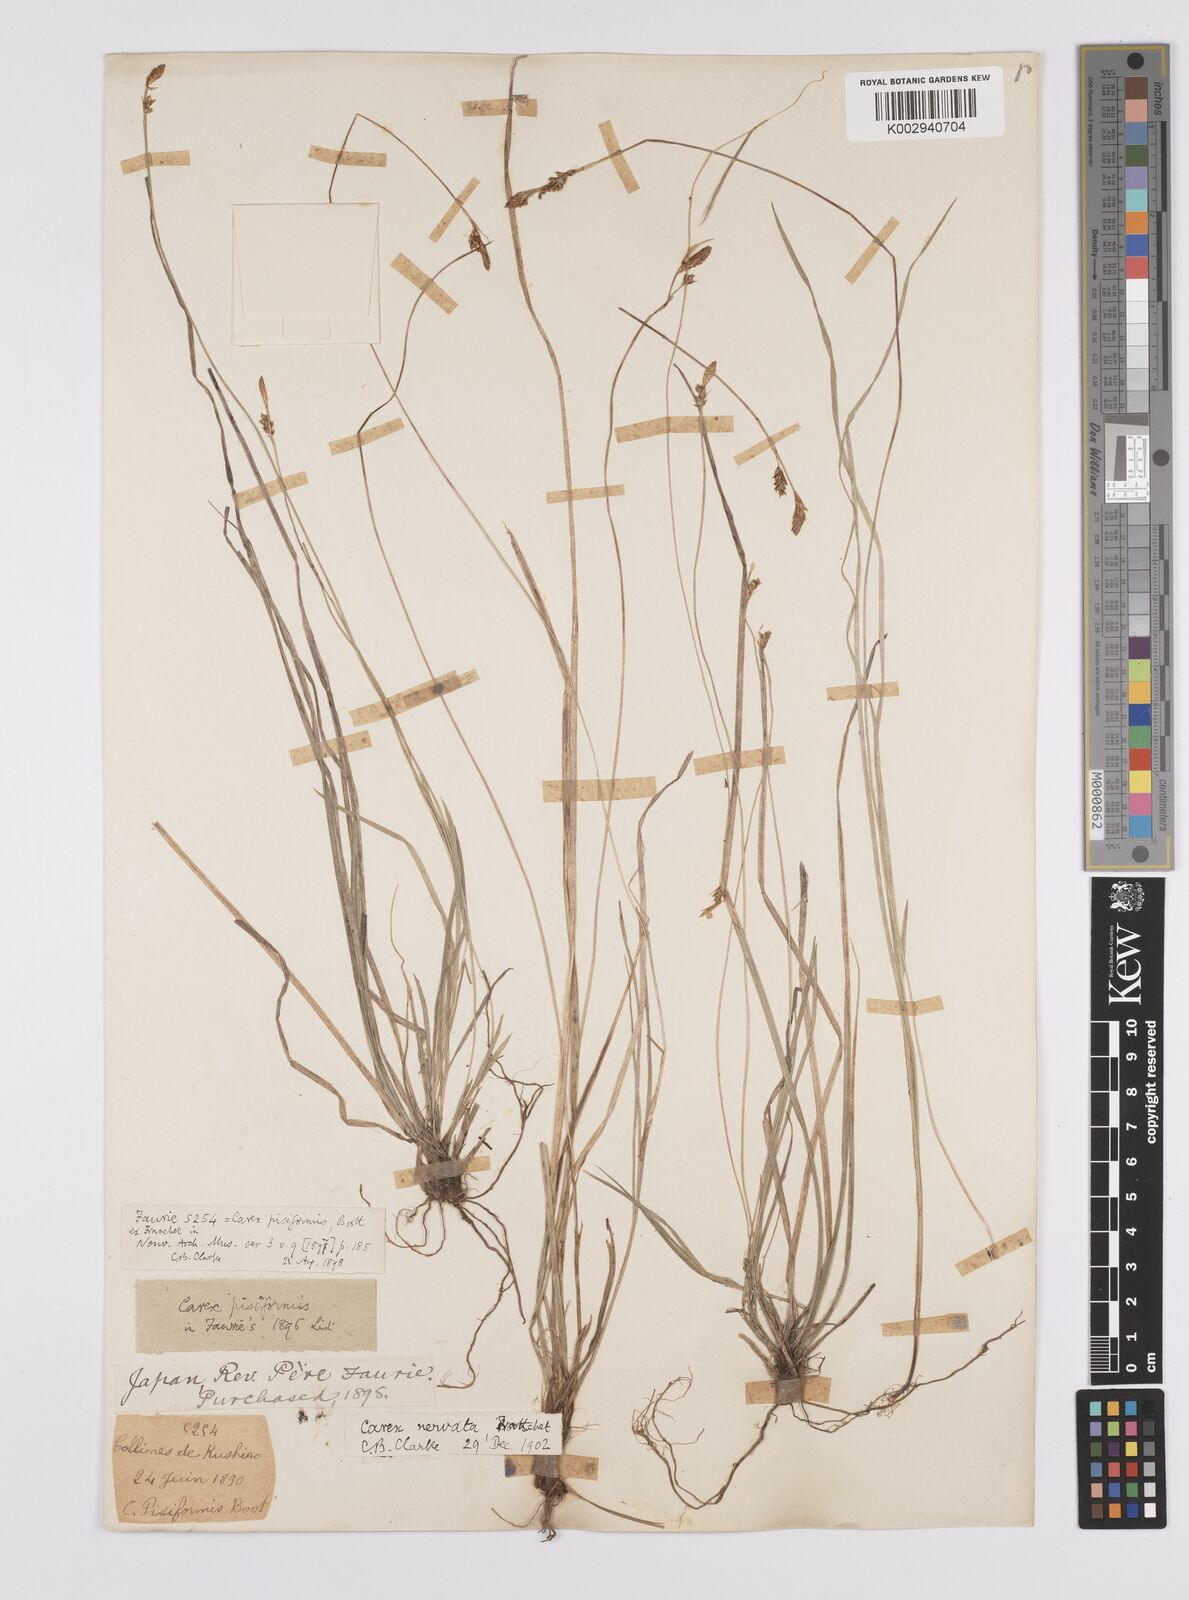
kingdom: Plantae
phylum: Tracheophyta
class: Liliopsida
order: Poales
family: Cyperaceae
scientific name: Cyperaceae
